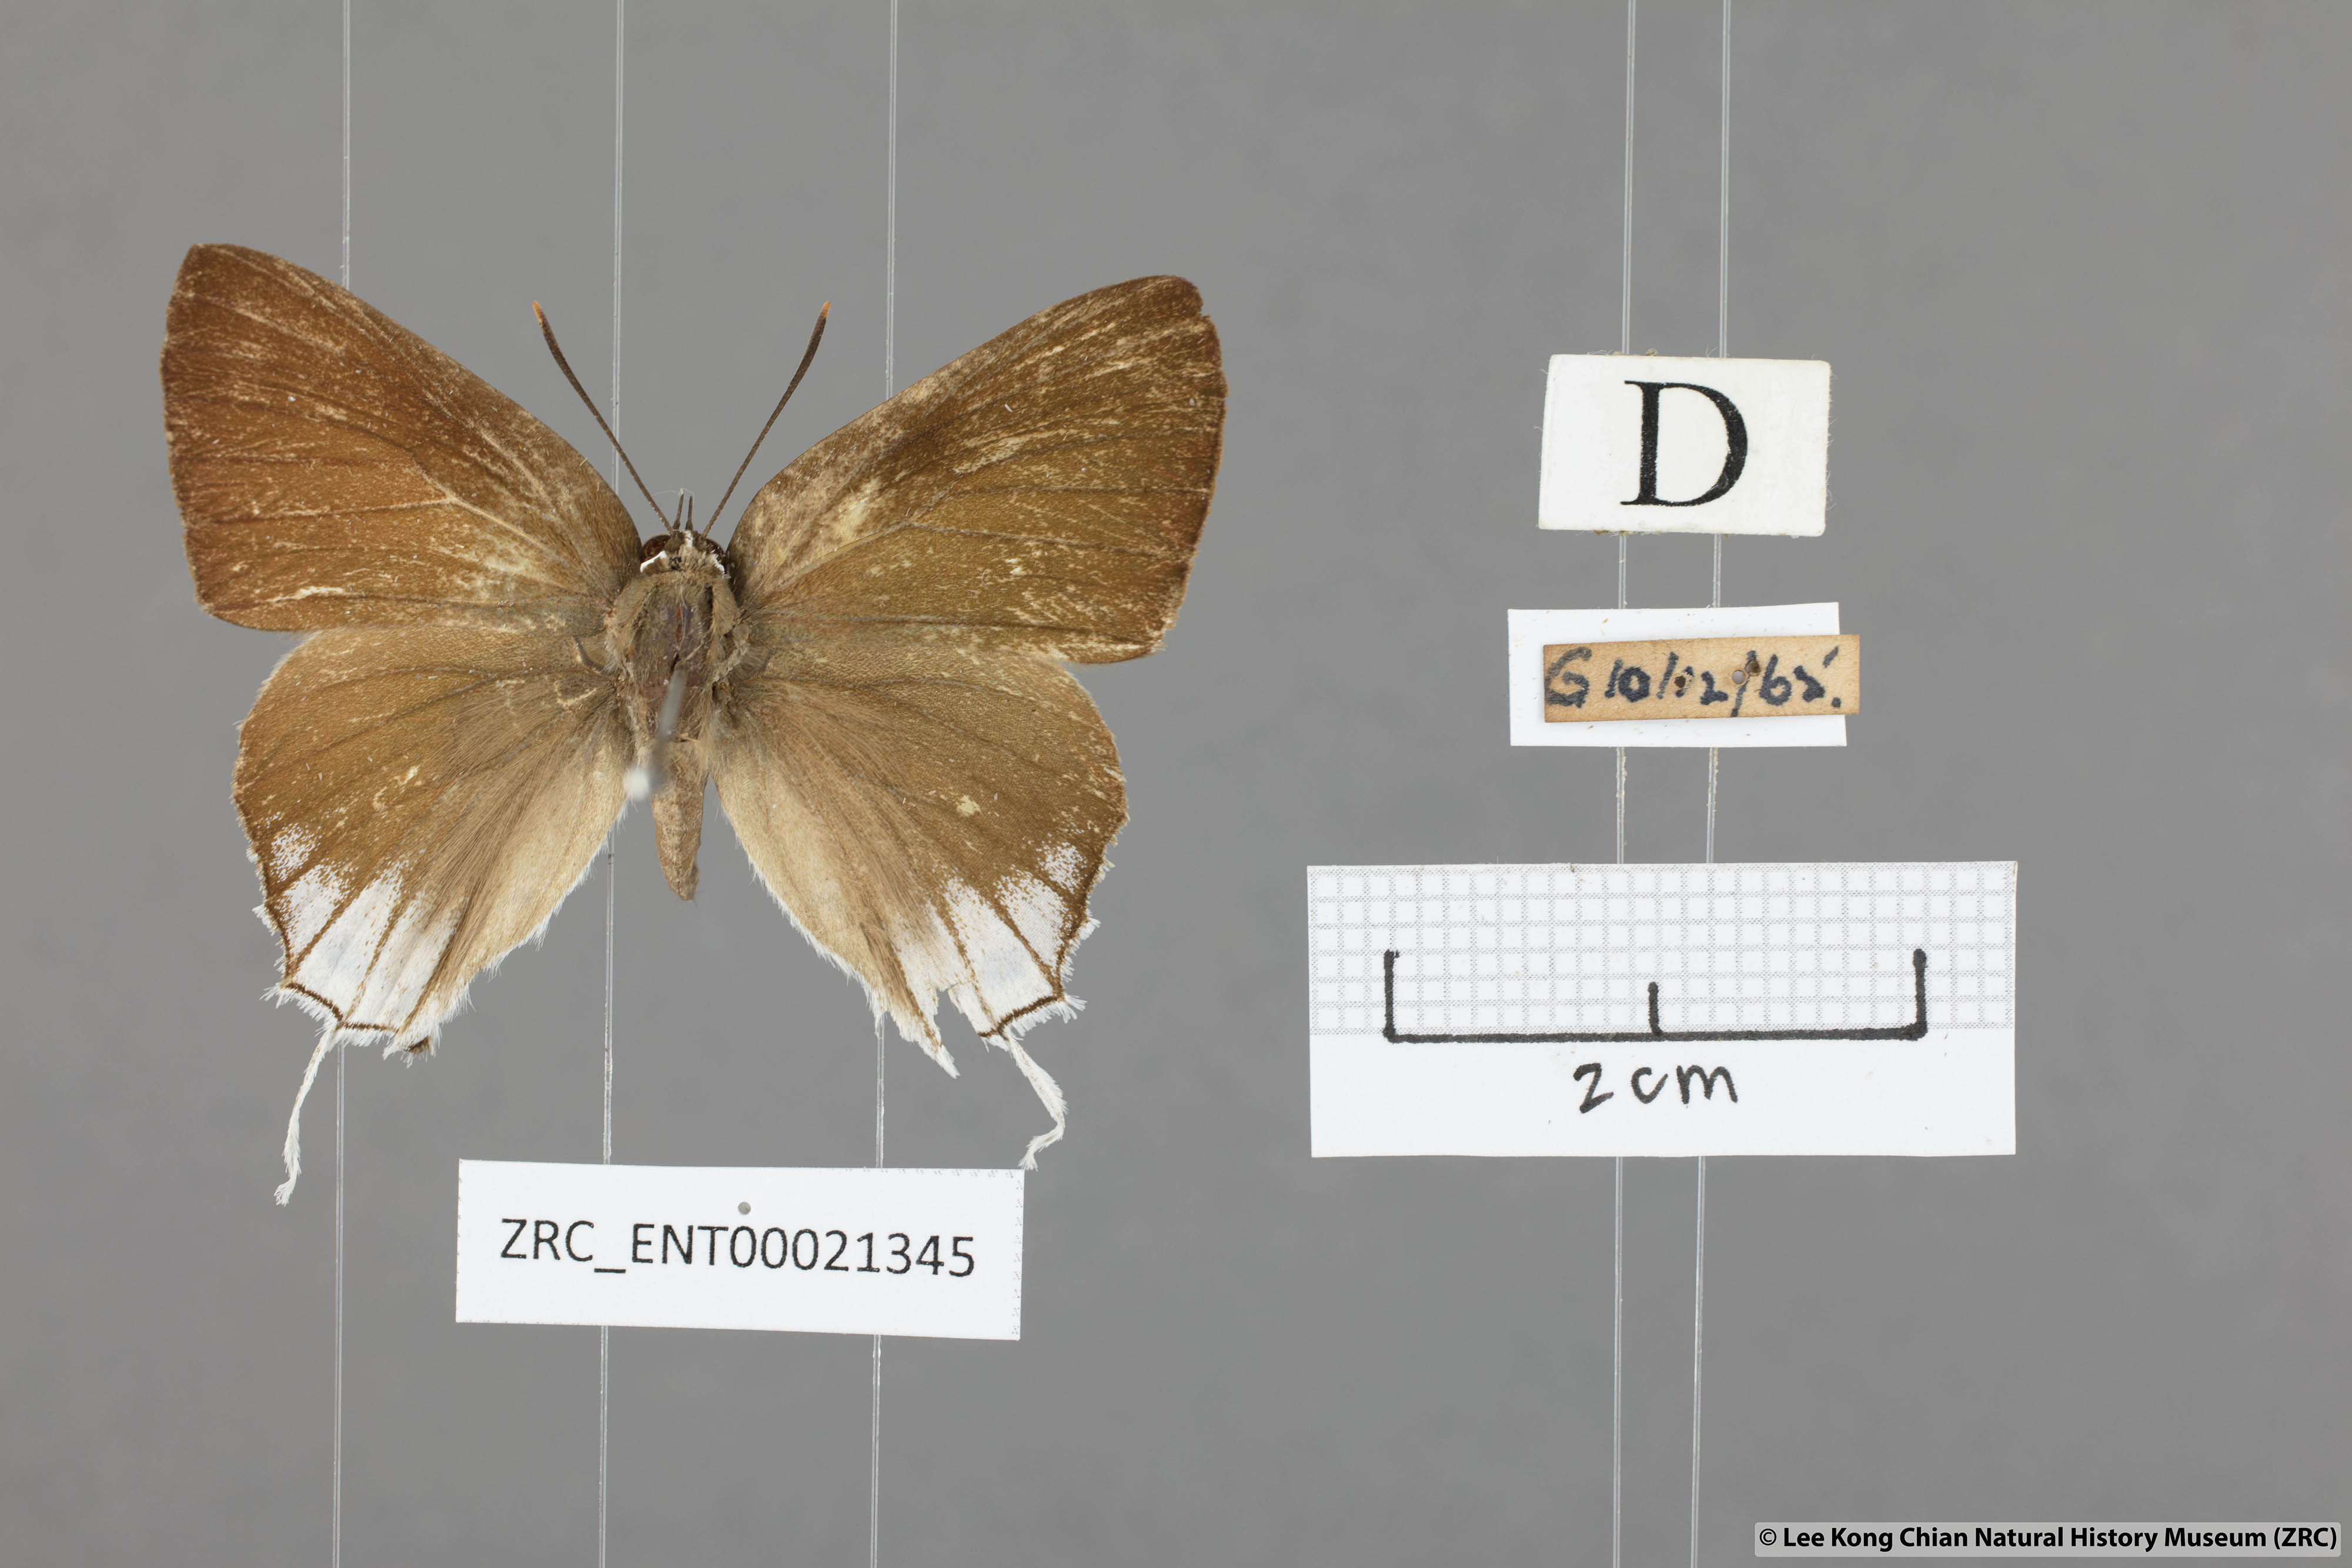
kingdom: Animalia
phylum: Arthropoda
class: Insecta
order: Lepidoptera
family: Lycaenidae
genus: Deudorix
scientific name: Deudorix
